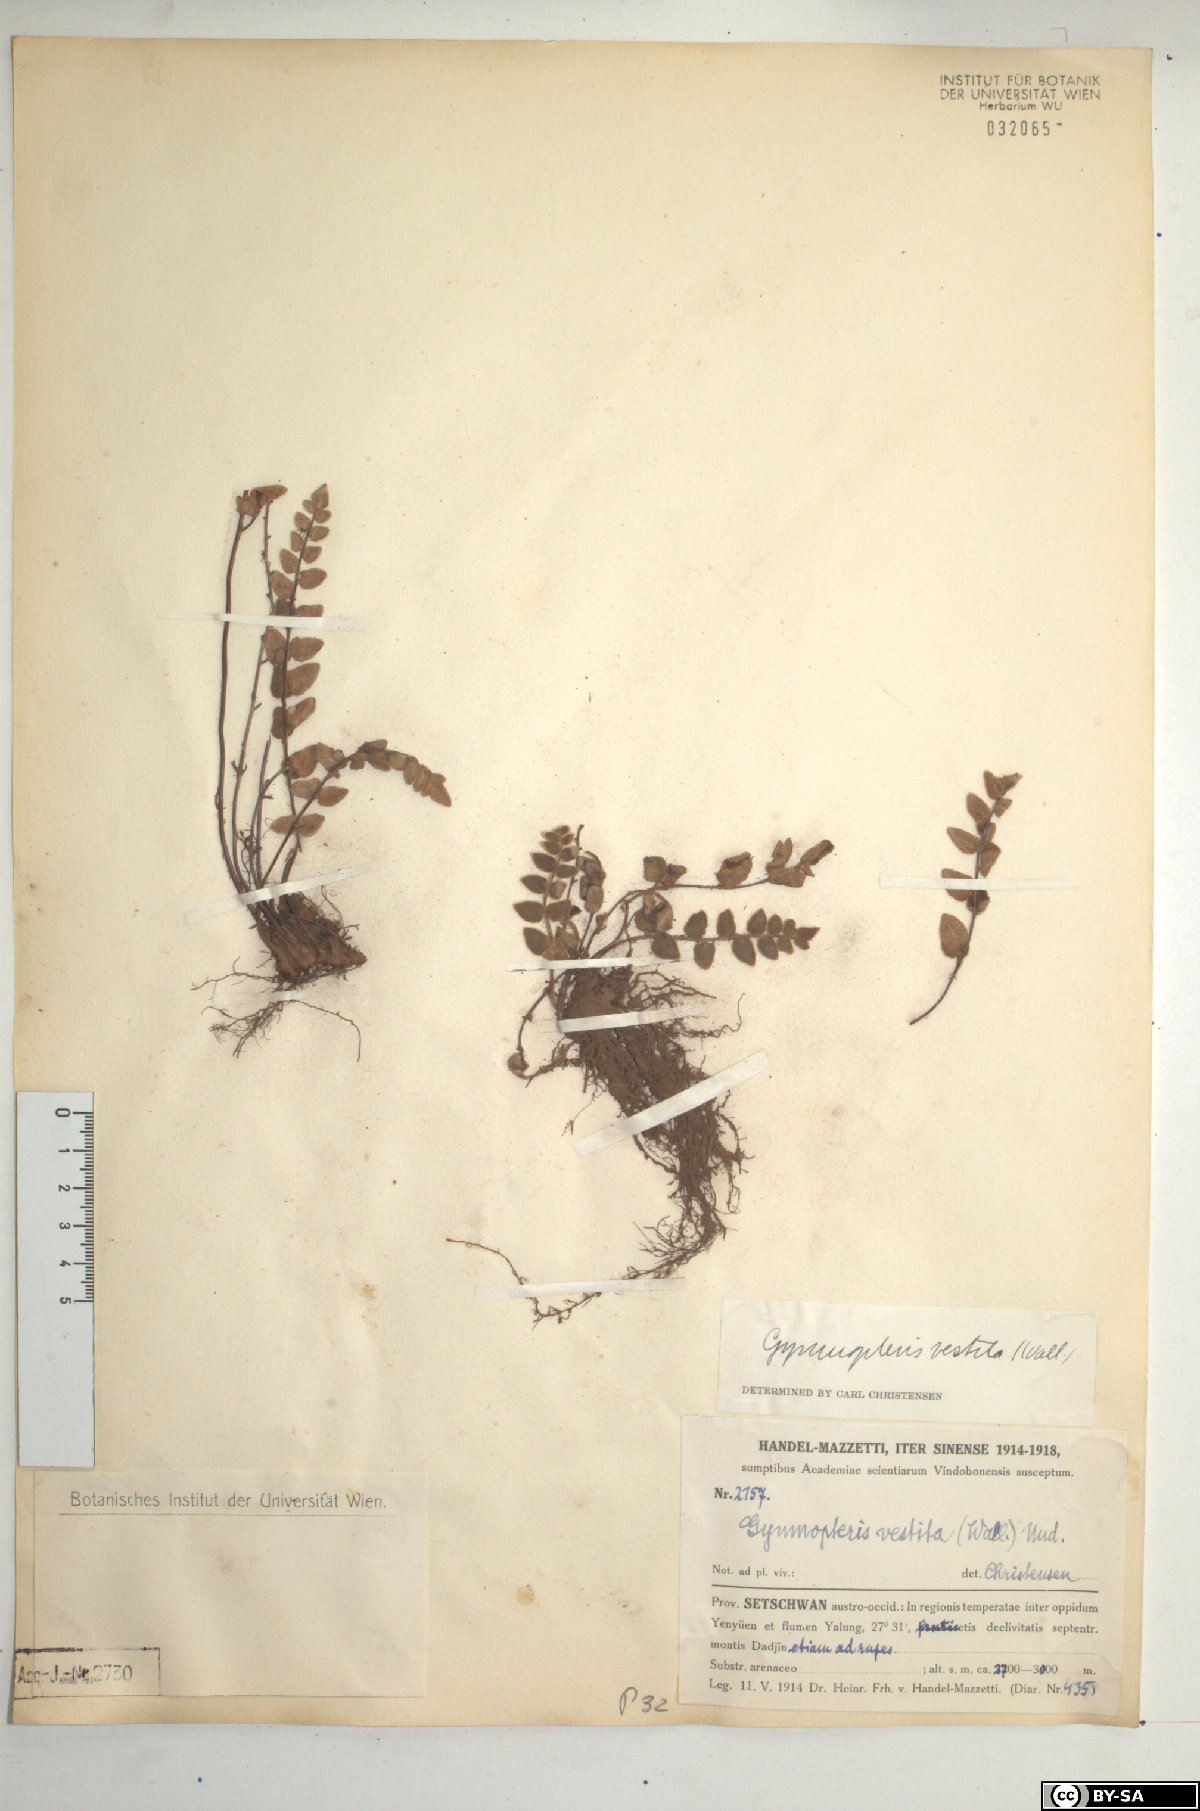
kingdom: Plantae
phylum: Tracheophyta
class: Polypodiopsida
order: Polypodiales
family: Pteridaceae
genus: Paragymnopteris
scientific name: Paragymnopteris vestita
